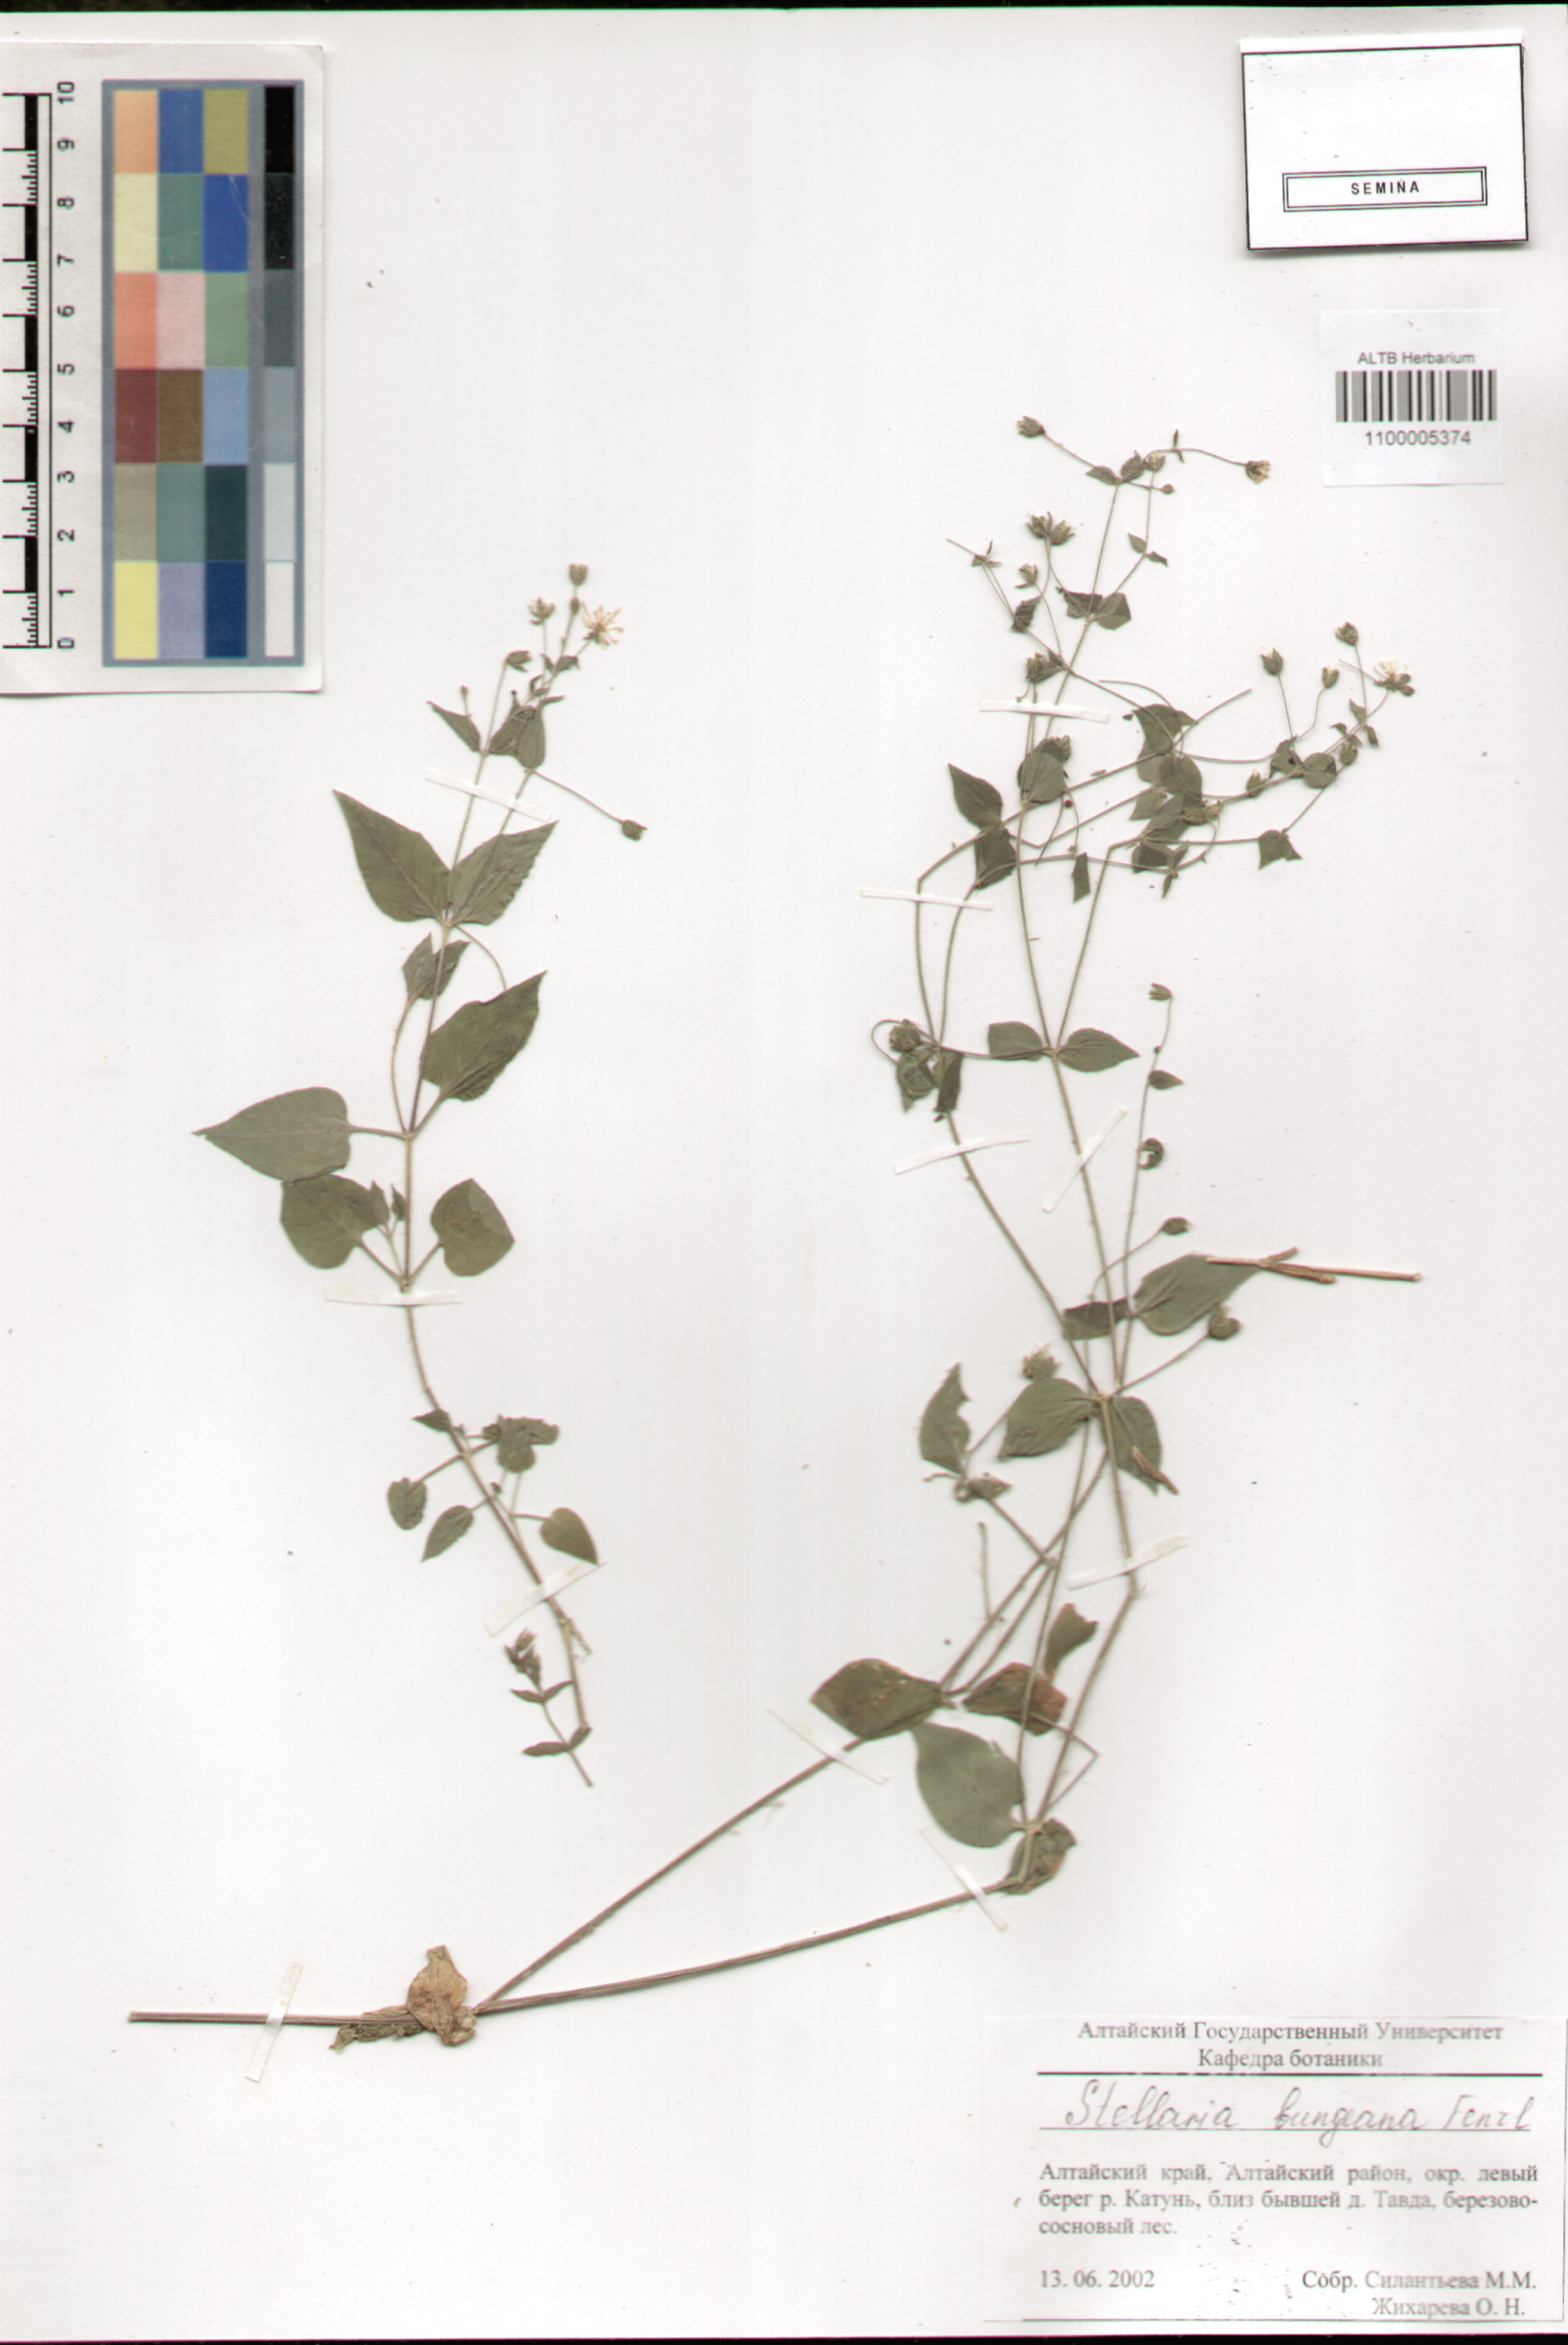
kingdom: Plantae
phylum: Tracheophyta
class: Magnoliopsida
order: Caryophyllales
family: Caryophyllaceae
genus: Stellaria
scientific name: Stellaria bungeana
